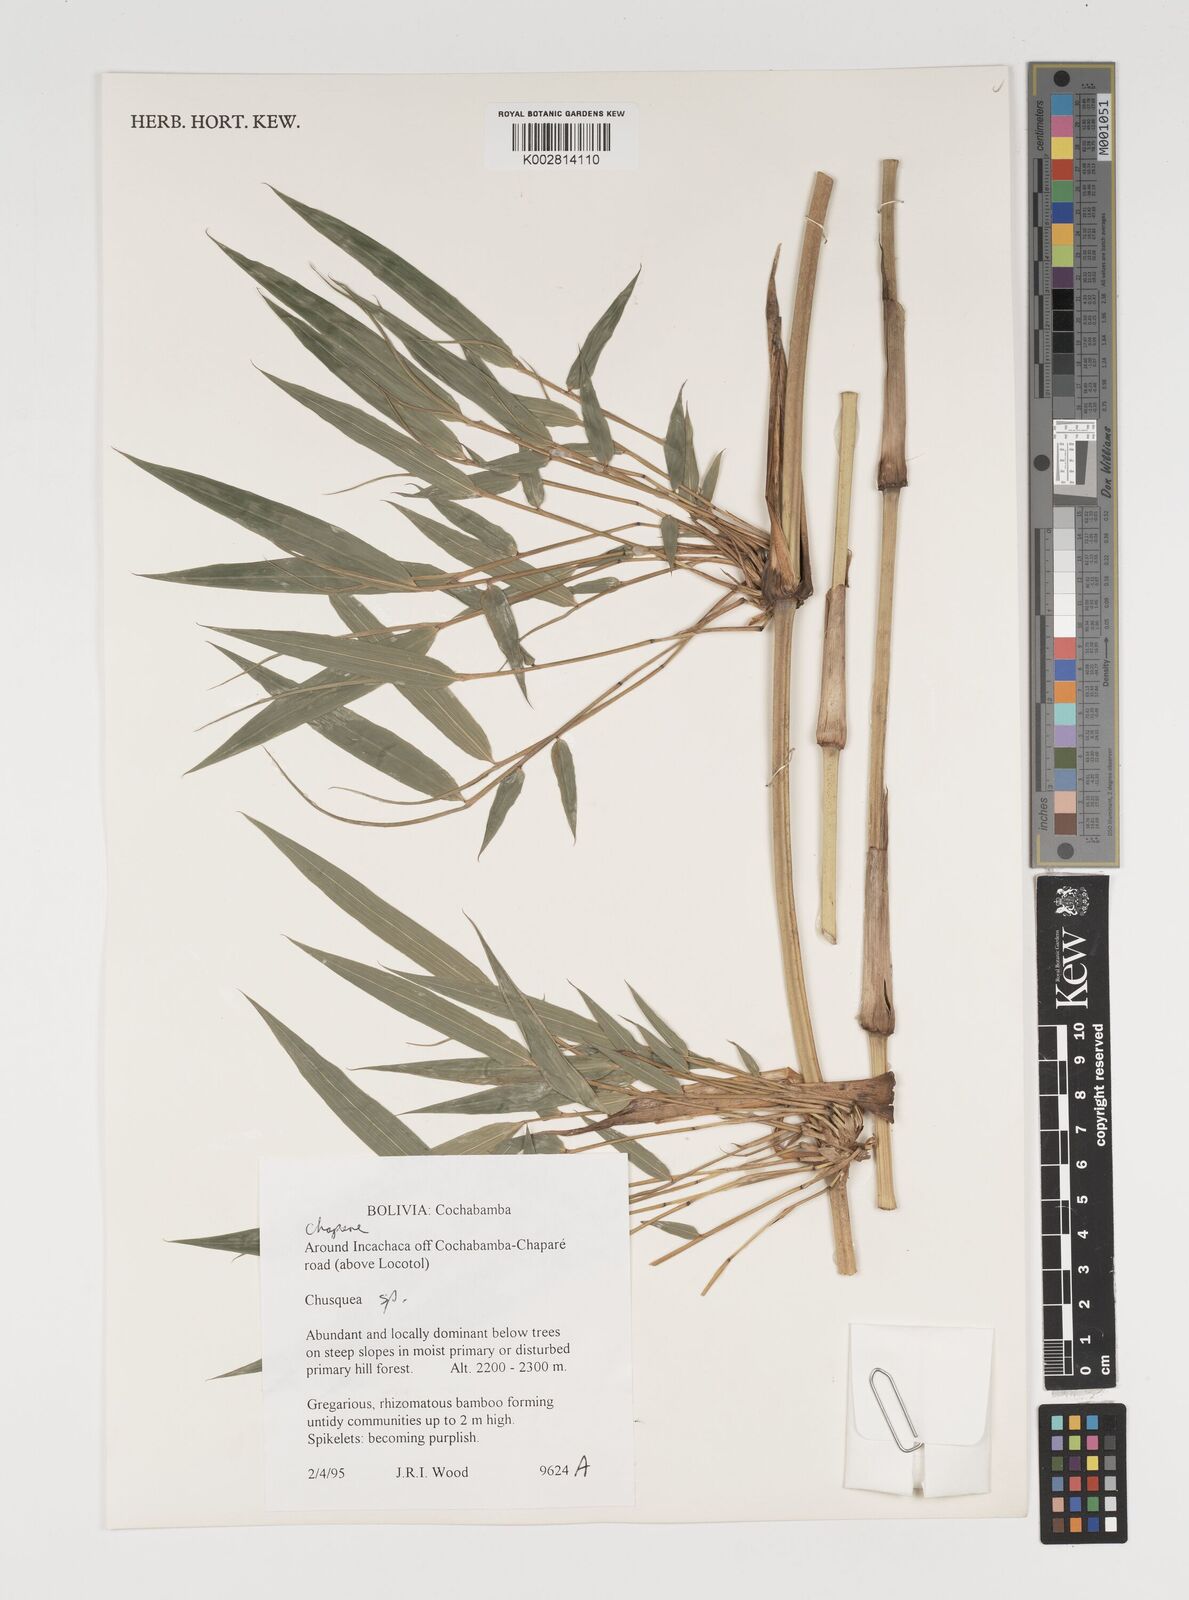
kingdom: Plantae
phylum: Tracheophyta
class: Liliopsida
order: Poales
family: Poaceae
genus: Chusquea
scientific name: Chusquea
